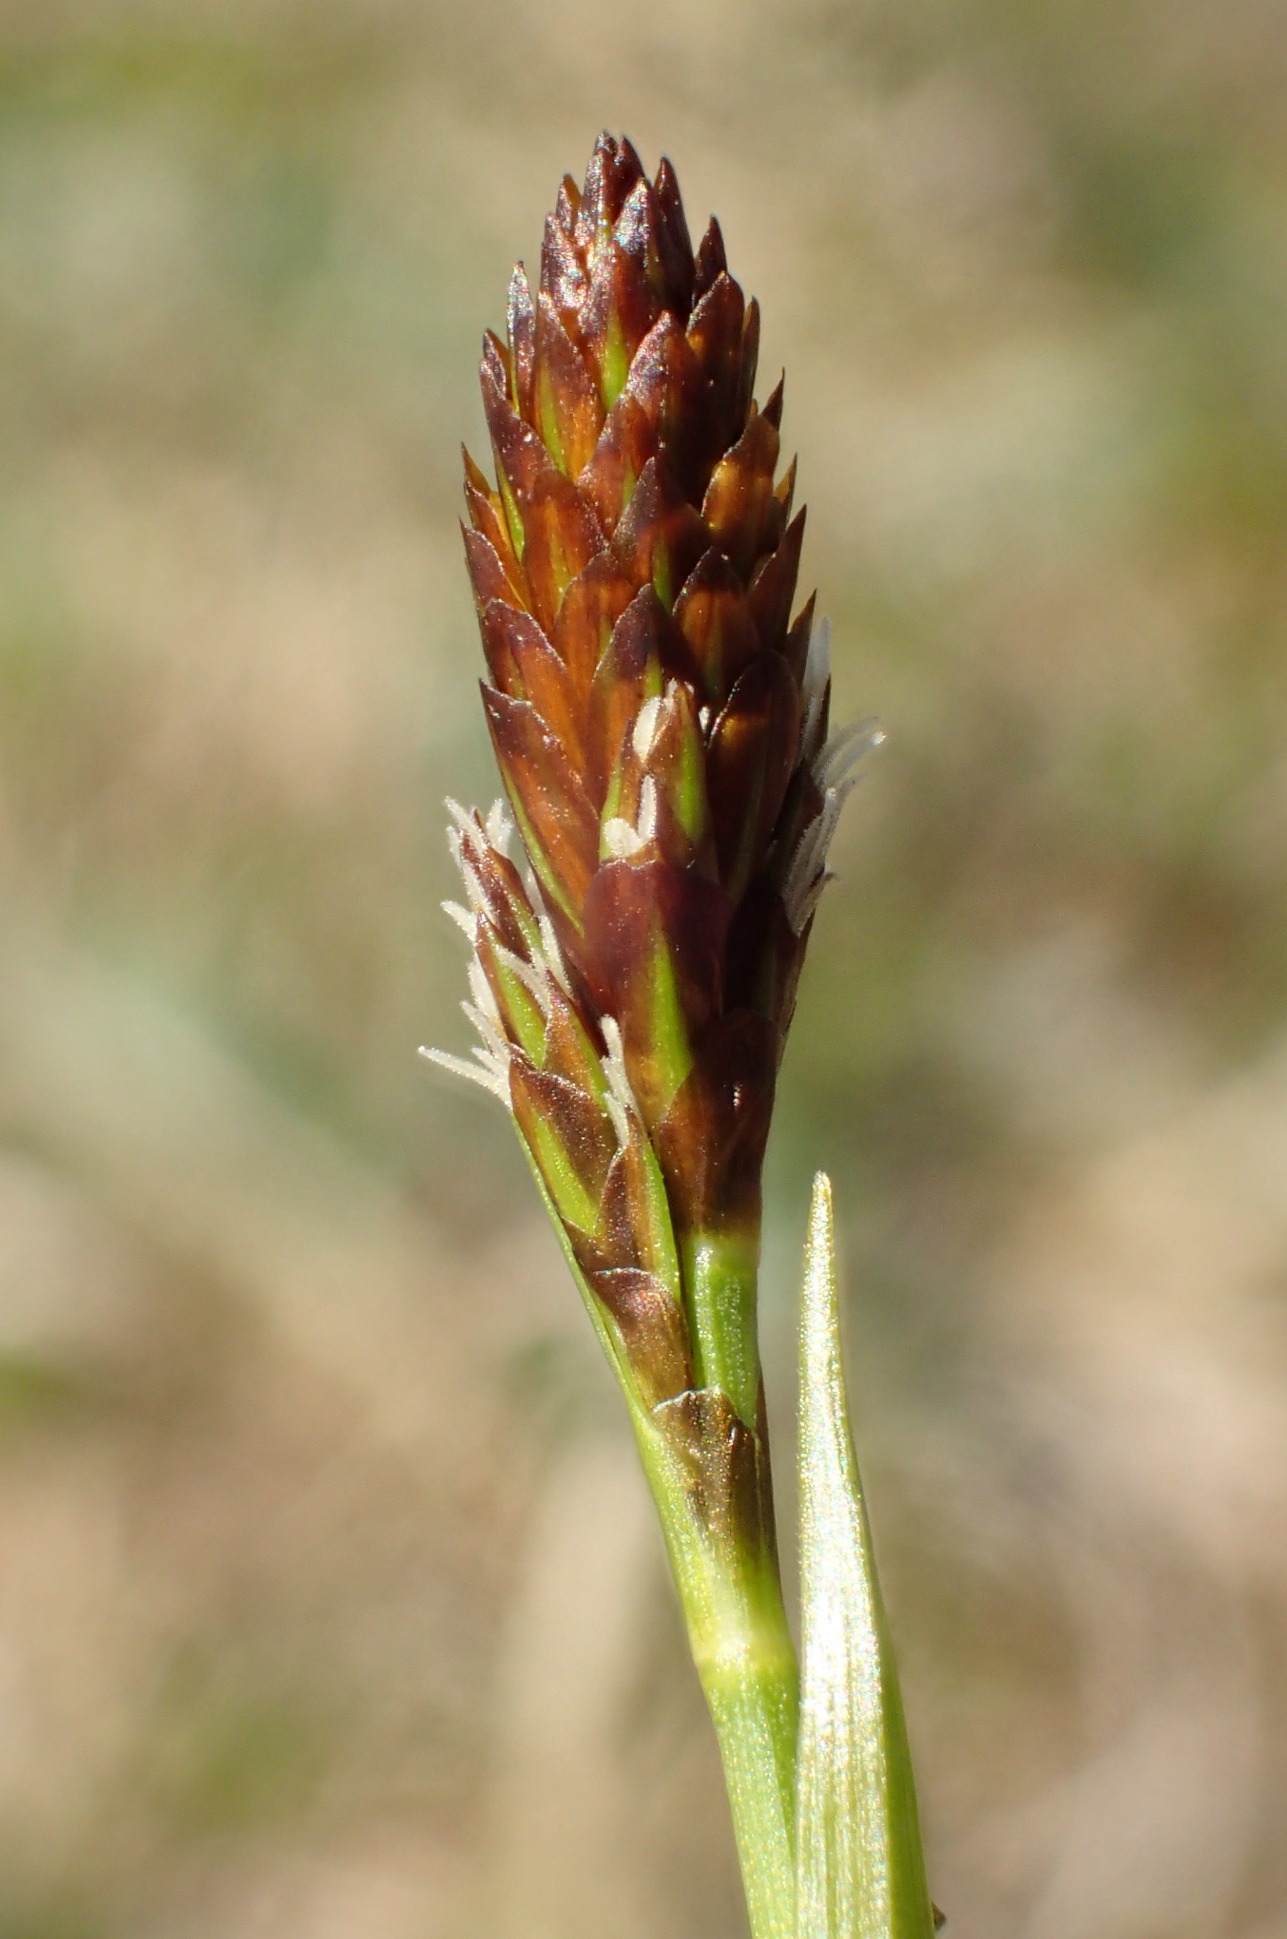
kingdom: Plantae
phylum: Tracheophyta
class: Liliopsida
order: Poales
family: Cyperaceae
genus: Carex
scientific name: Carex caryophyllea
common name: Vår-star
